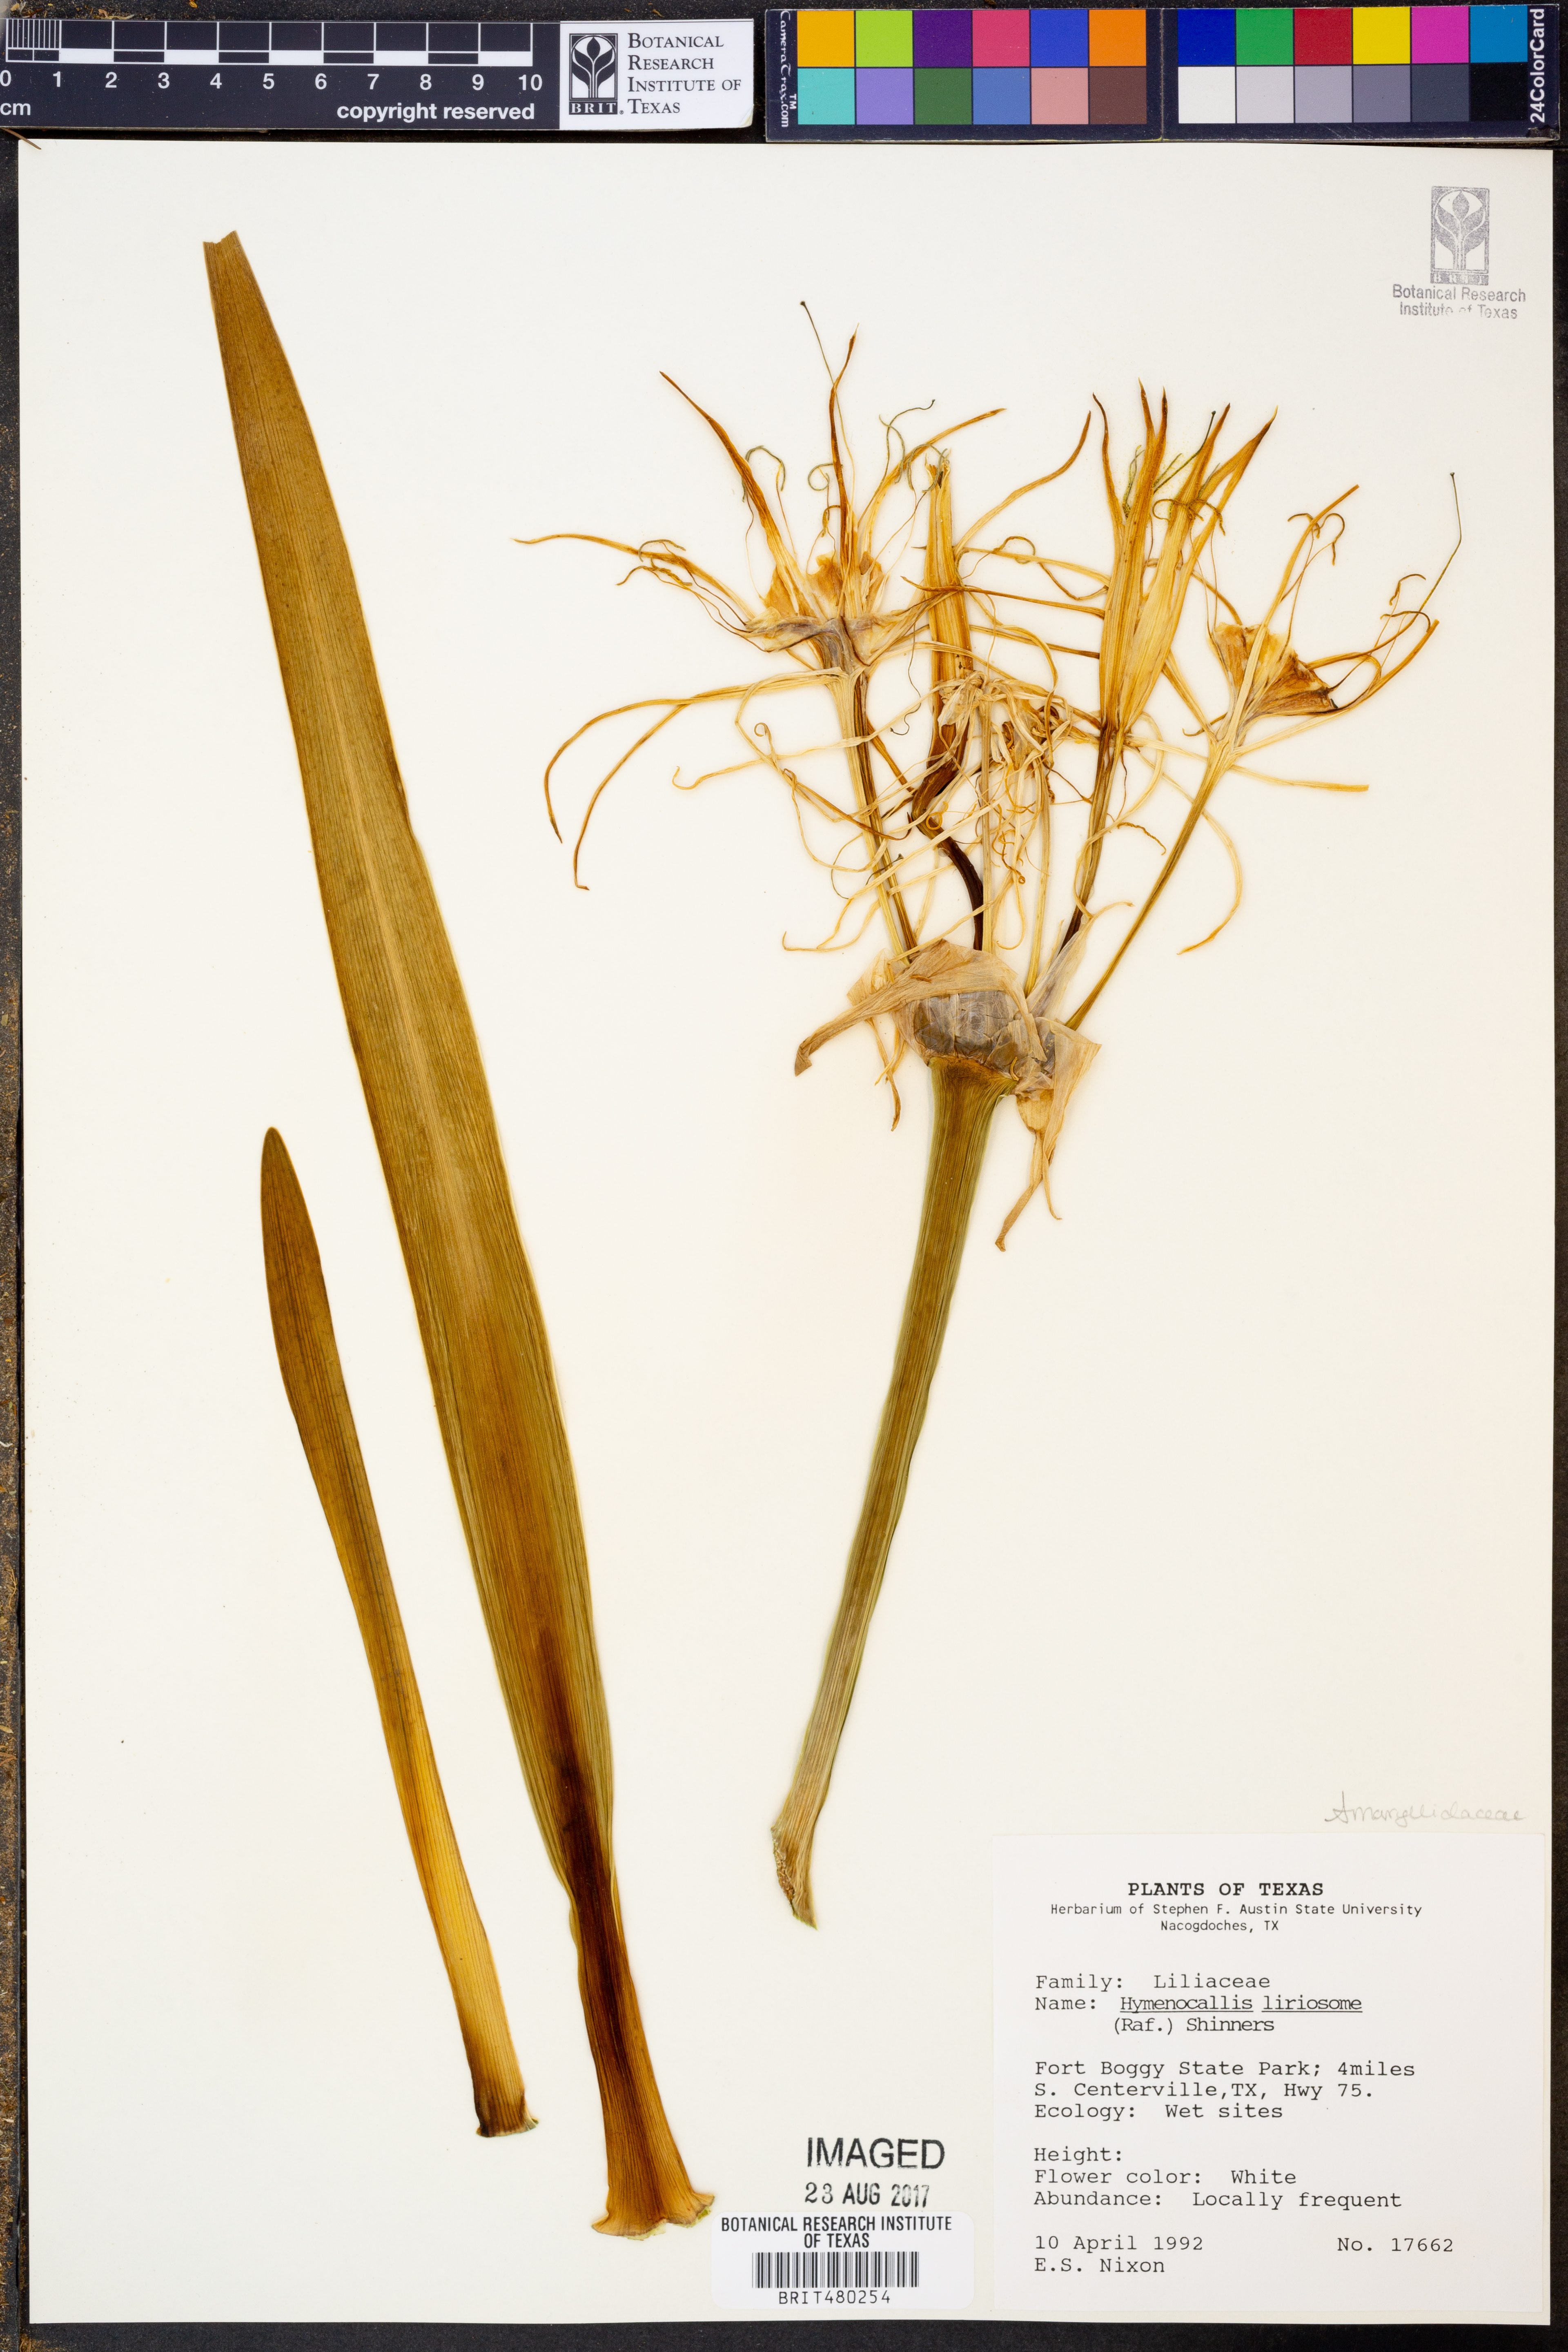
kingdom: Plantae
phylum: Tracheophyta
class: Liliopsida
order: Asparagales
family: Amaryllidaceae
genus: Hymenocallis
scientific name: Hymenocallis liriosme
